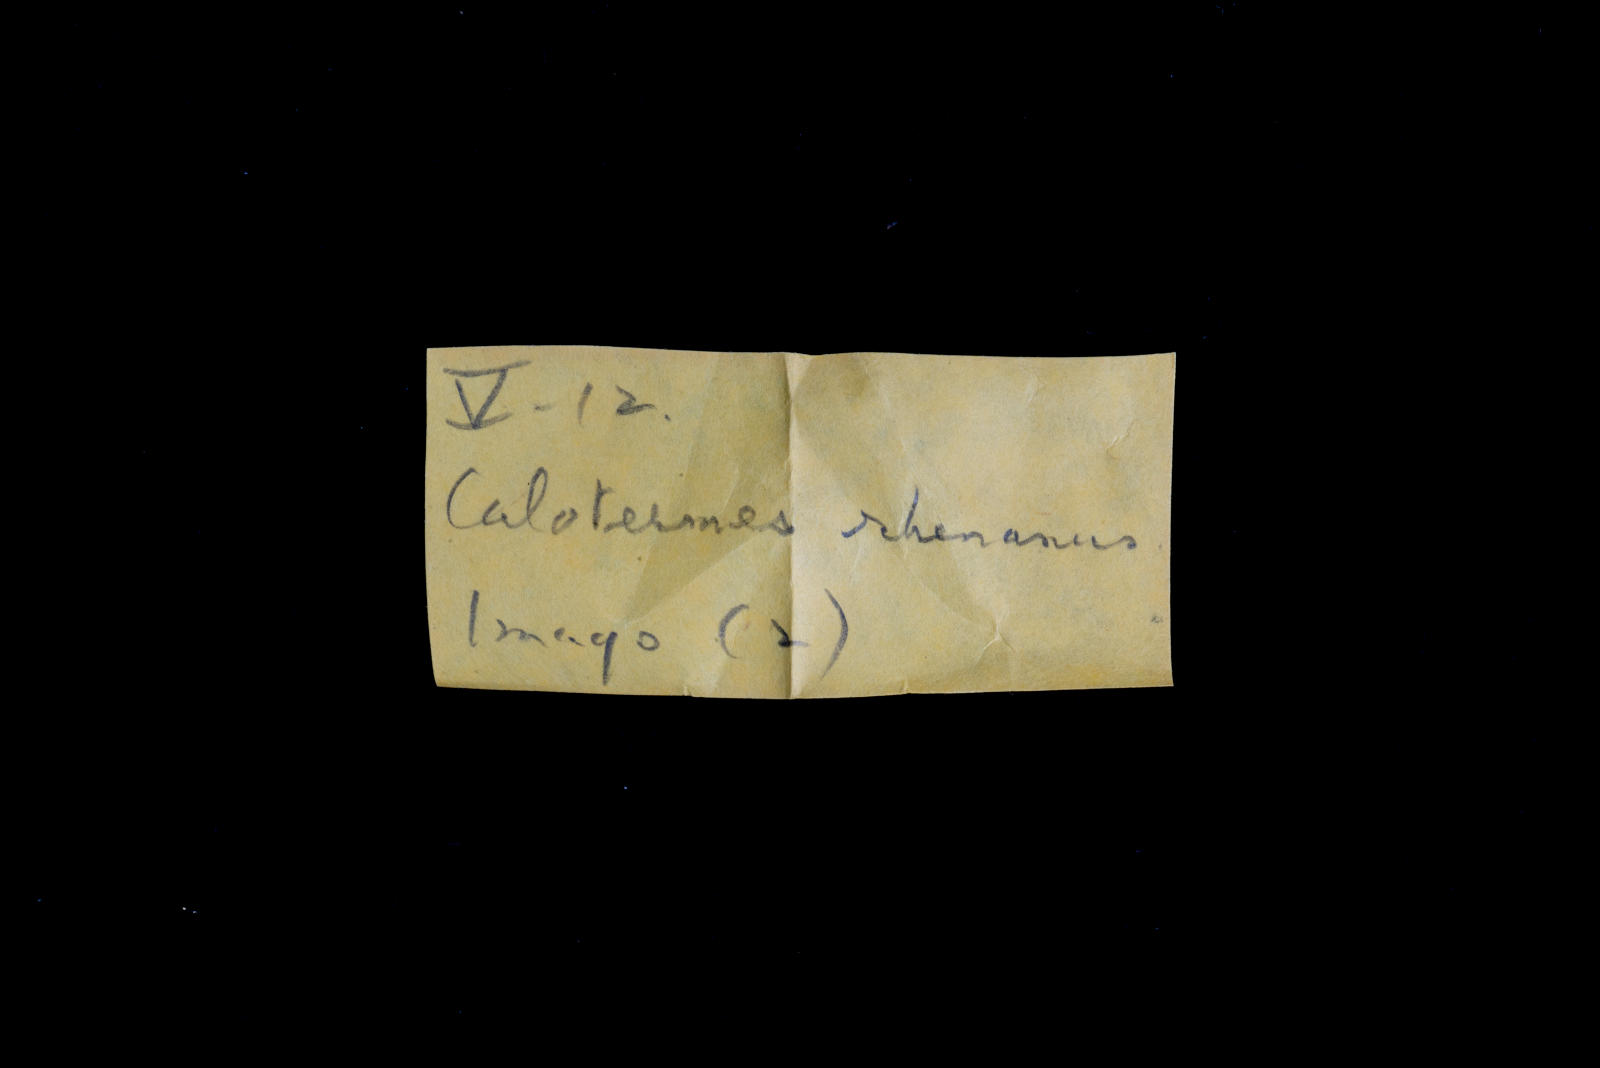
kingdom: Animalia
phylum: Arthropoda
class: Insecta
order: Blattodea
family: Kalotermitidae
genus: Kalotermes
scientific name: Kalotermes rhenanus
